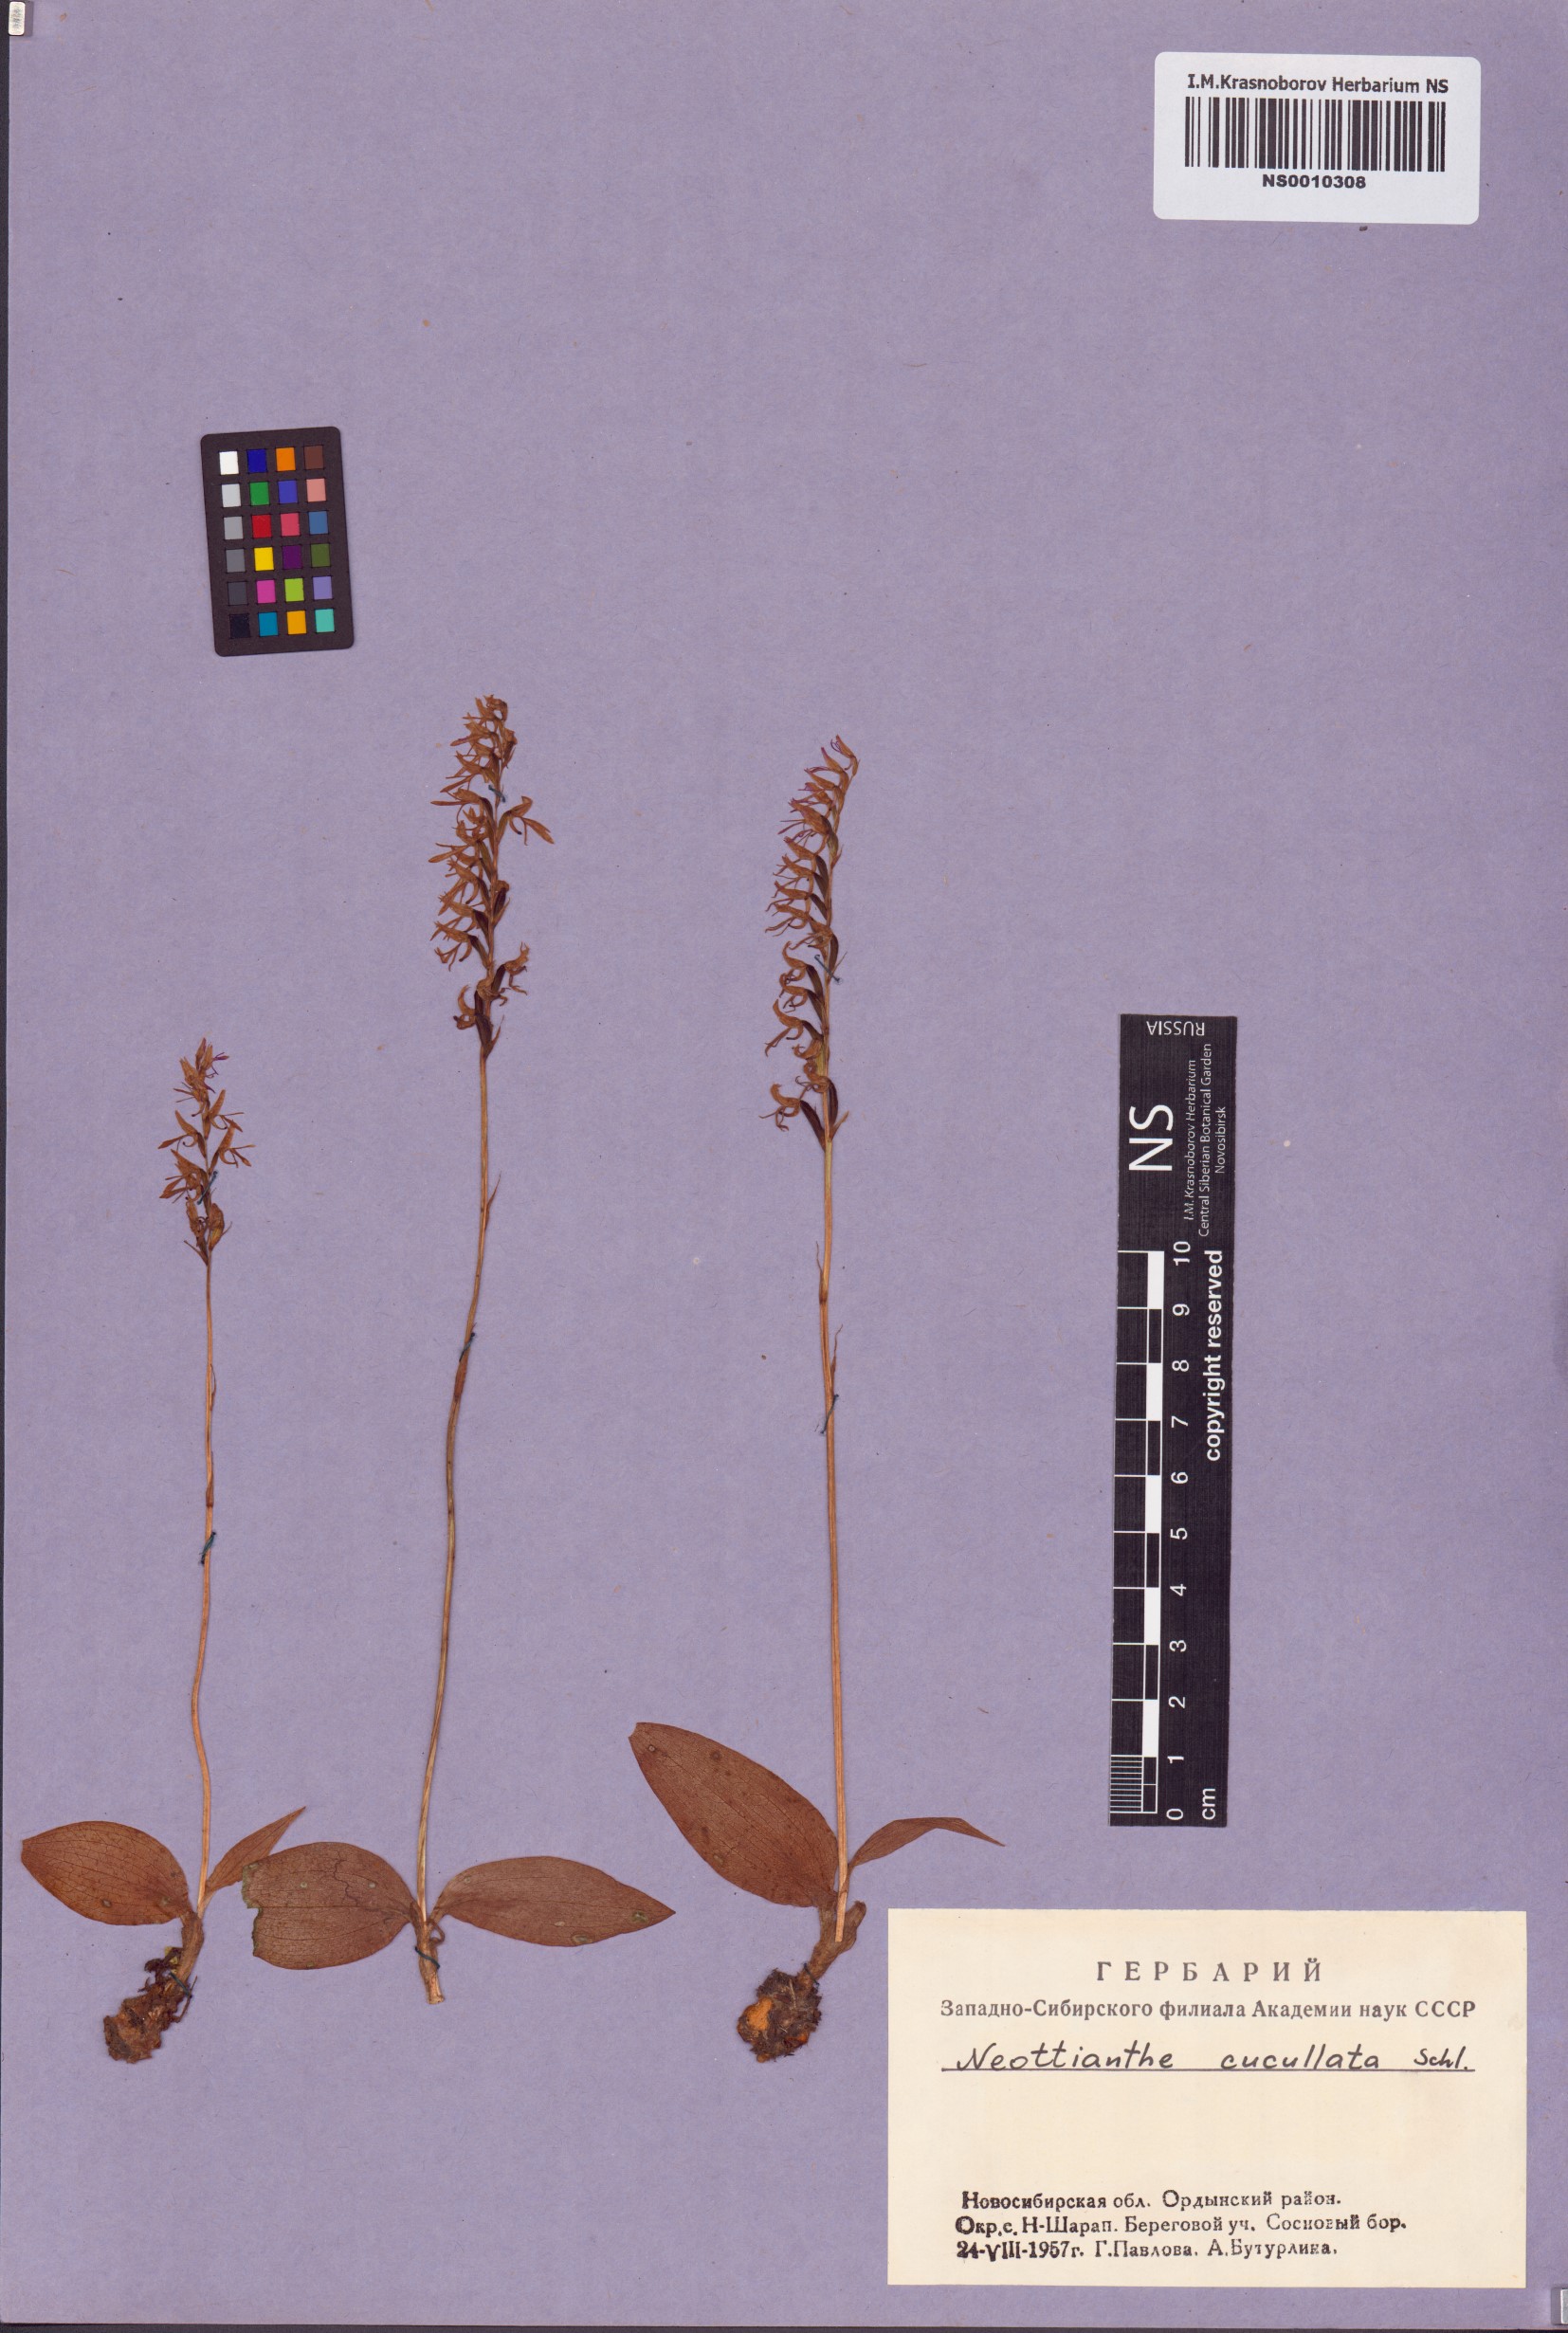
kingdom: Plantae
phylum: Tracheophyta
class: Liliopsida
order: Asparagales
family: Orchidaceae
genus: Hemipilia
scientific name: Hemipilia cucullata
